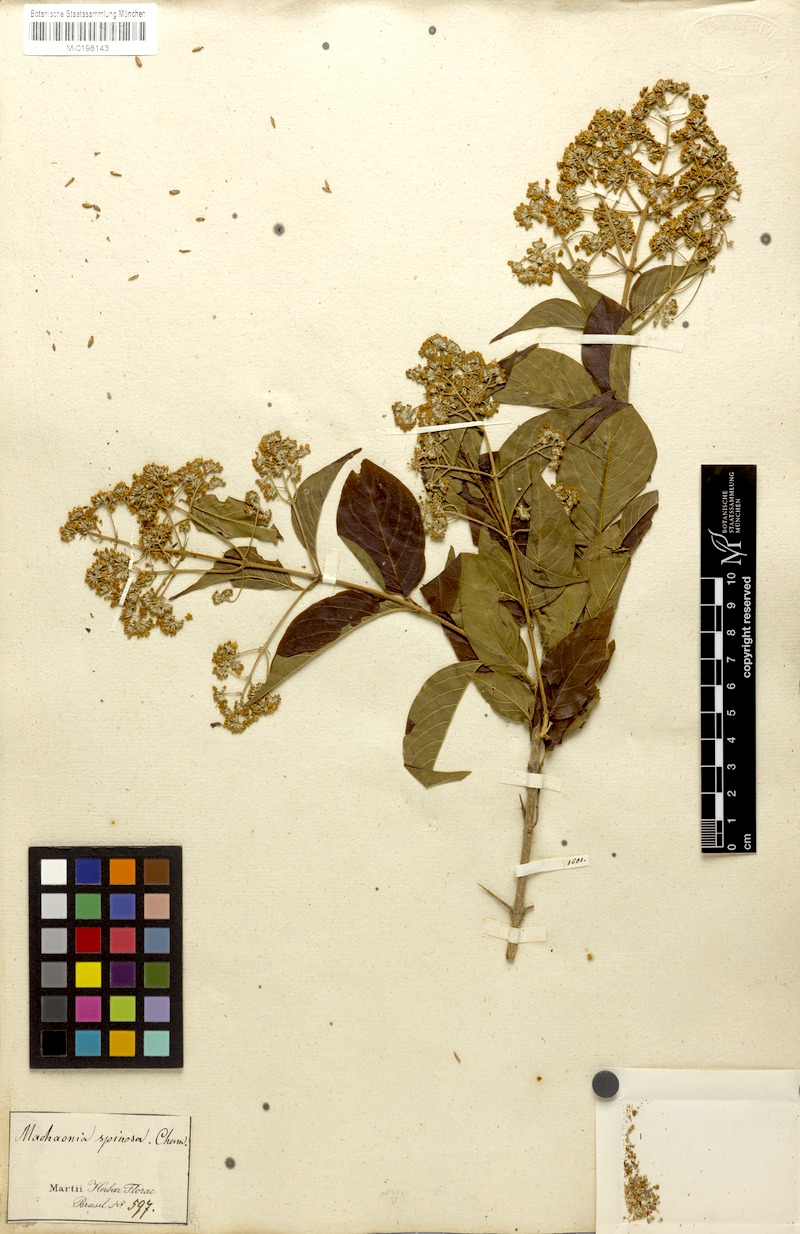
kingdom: Plantae
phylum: Tracheophyta
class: Magnoliopsida
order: Gentianales
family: Rubiaceae
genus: Machaonia
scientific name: Machaonia brasiliensis
